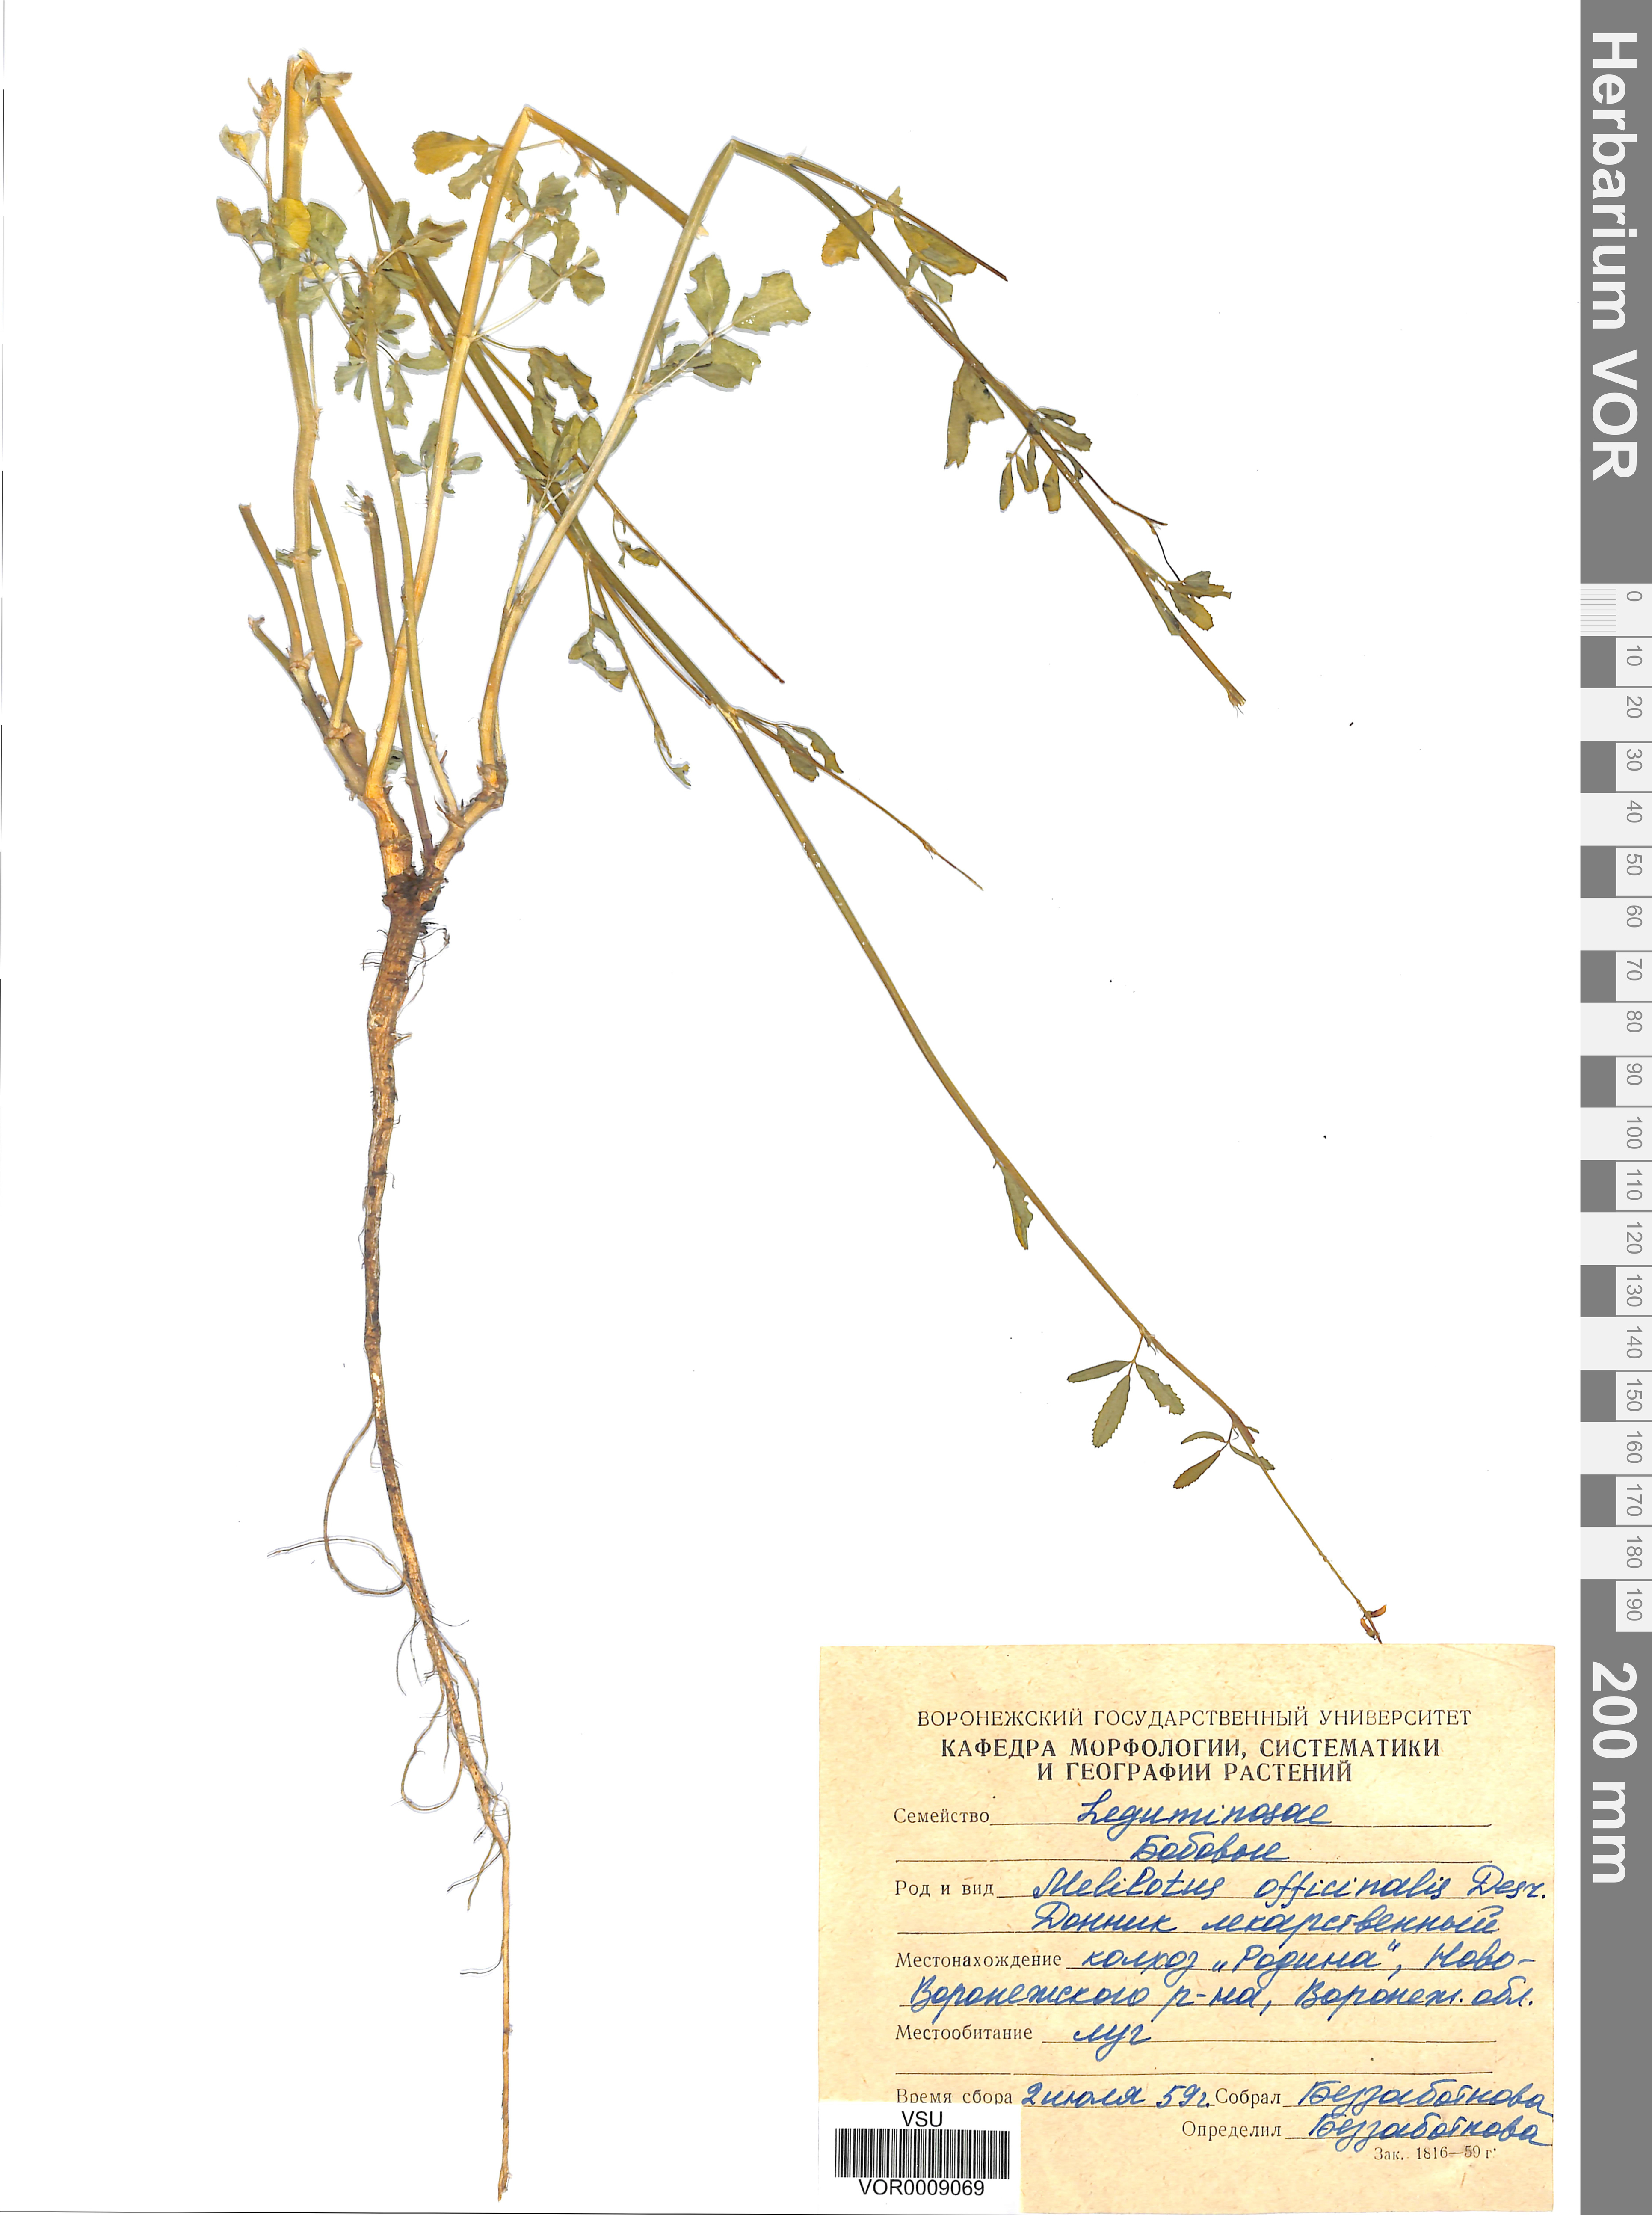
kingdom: Plantae
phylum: Tracheophyta
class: Magnoliopsida
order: Fabales
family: Fabaceae
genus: Melilotus
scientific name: Melilotus officinalis
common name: Sweetclover
